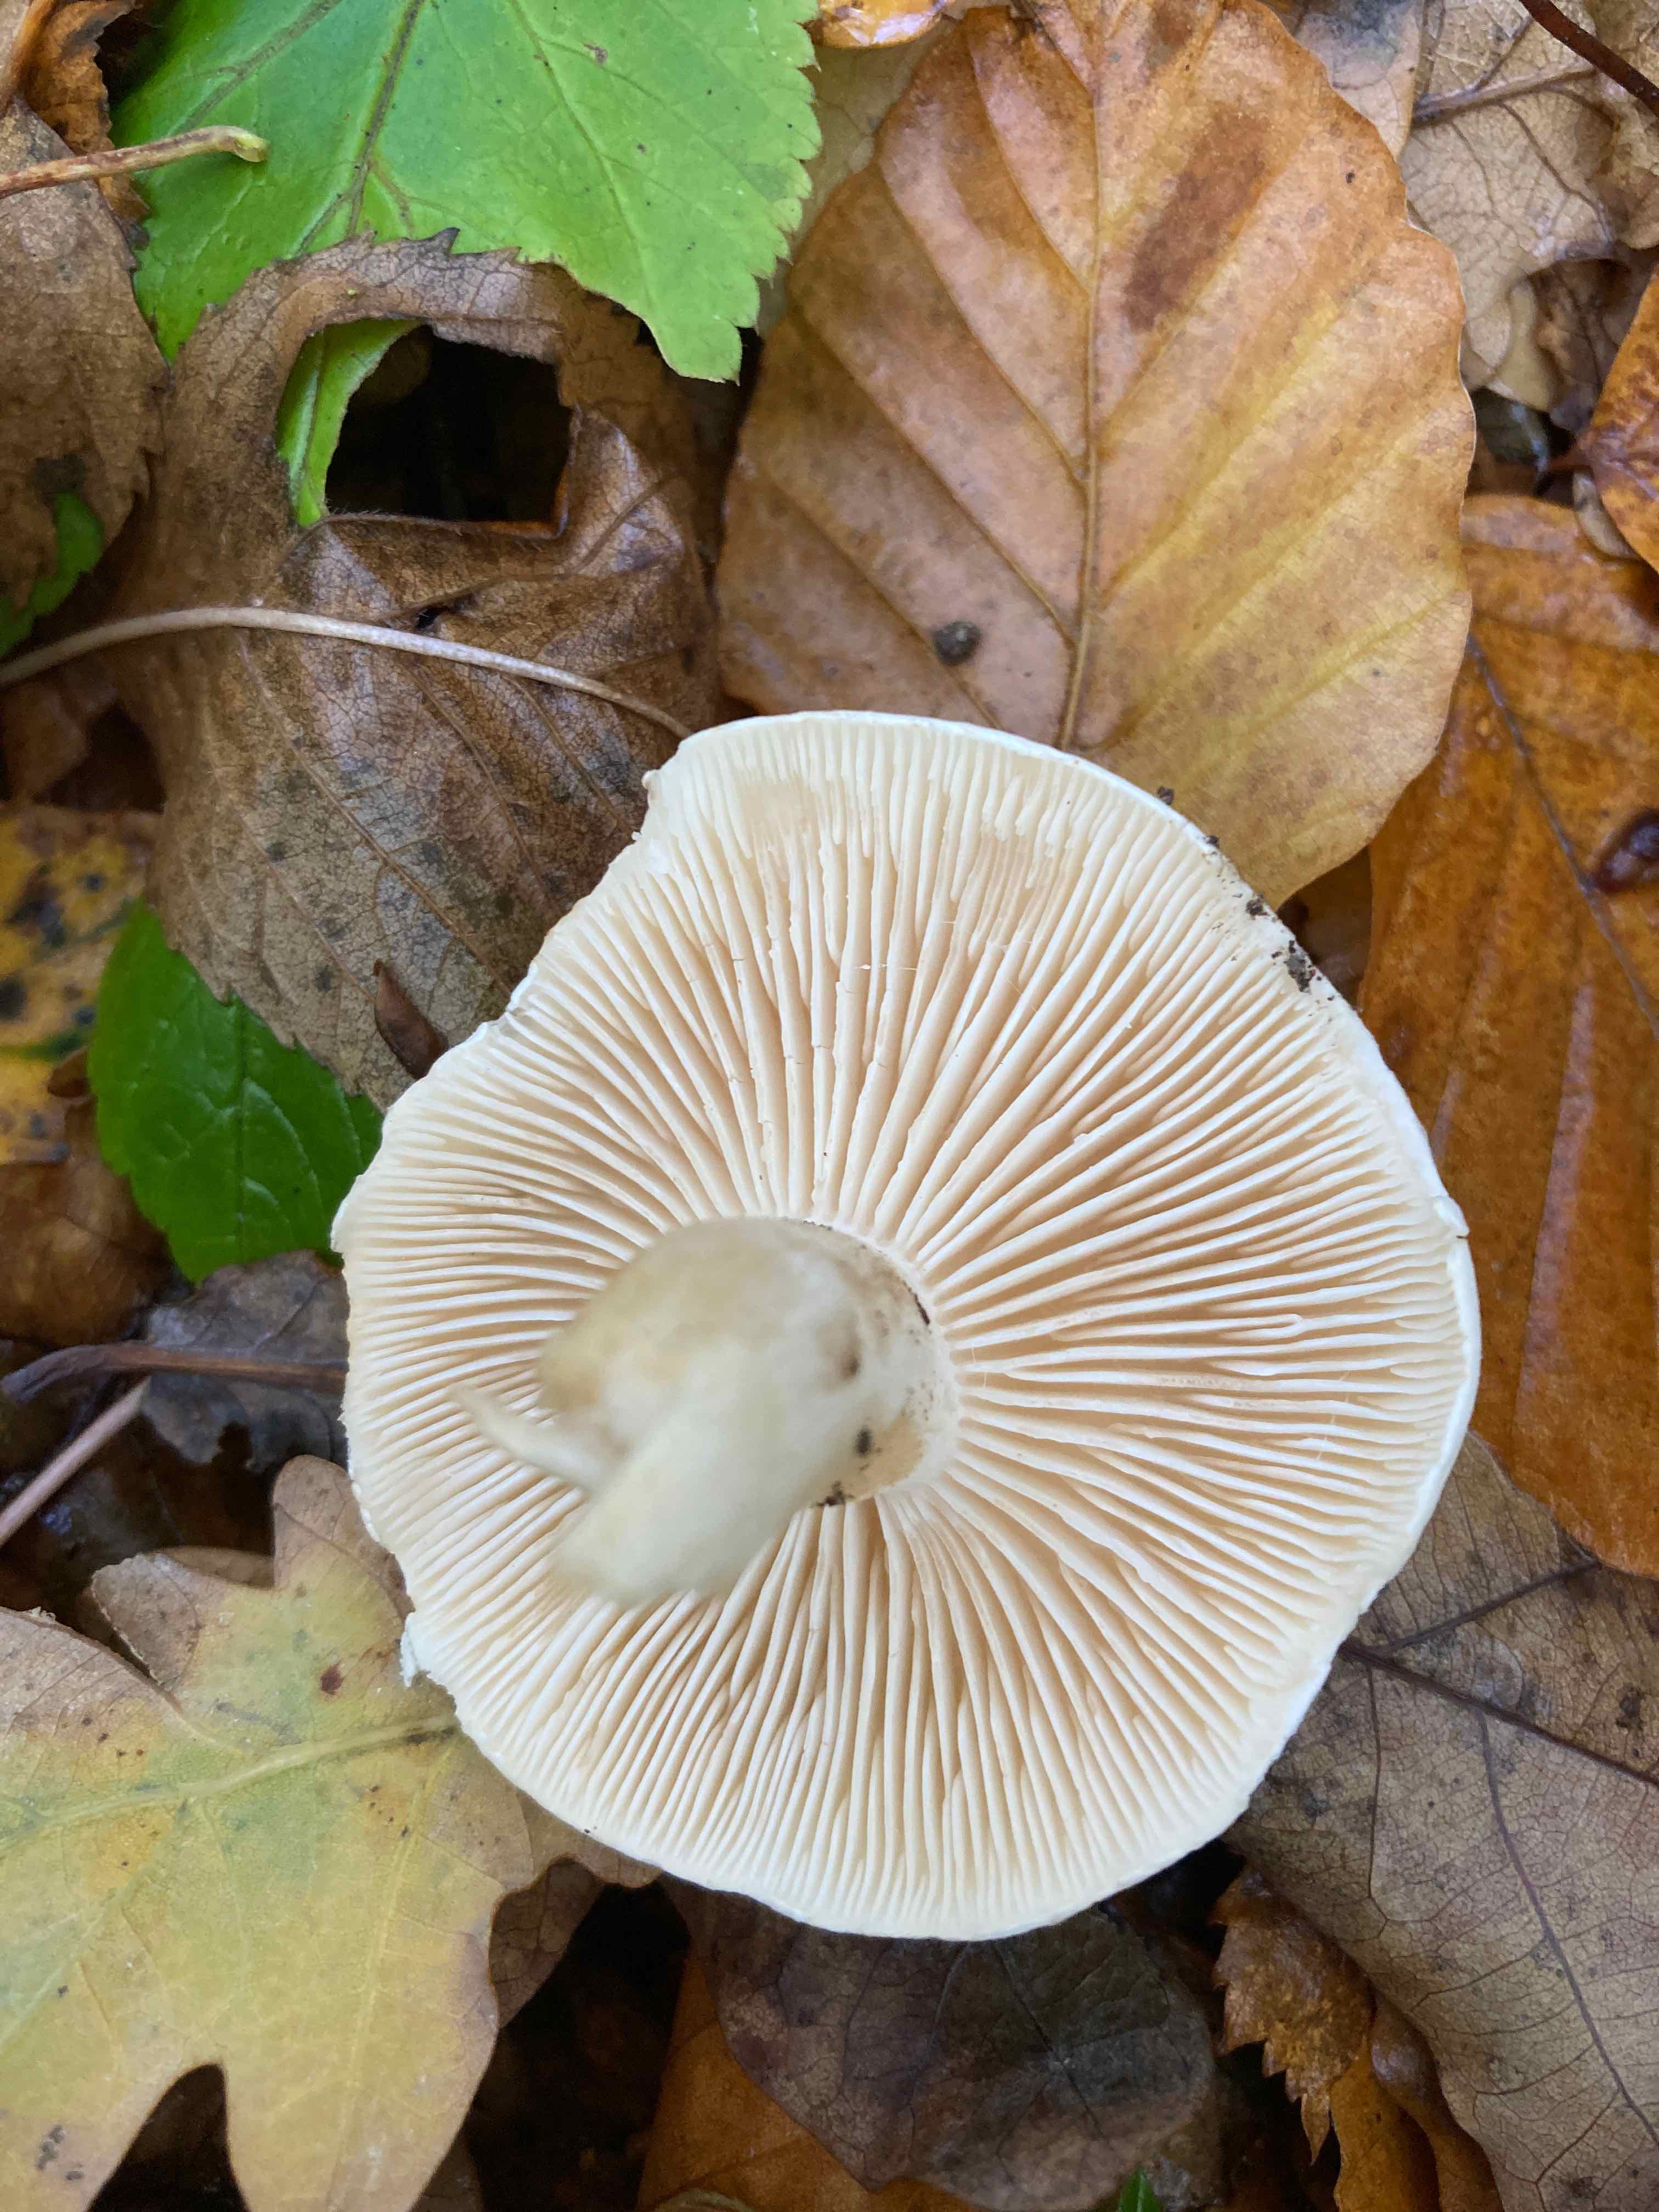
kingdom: Fungi
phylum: Basidiomycota
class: Agaricomycetes
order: Agaricales
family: Tricholomataceae
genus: Tricholoma
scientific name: Tricholoma
